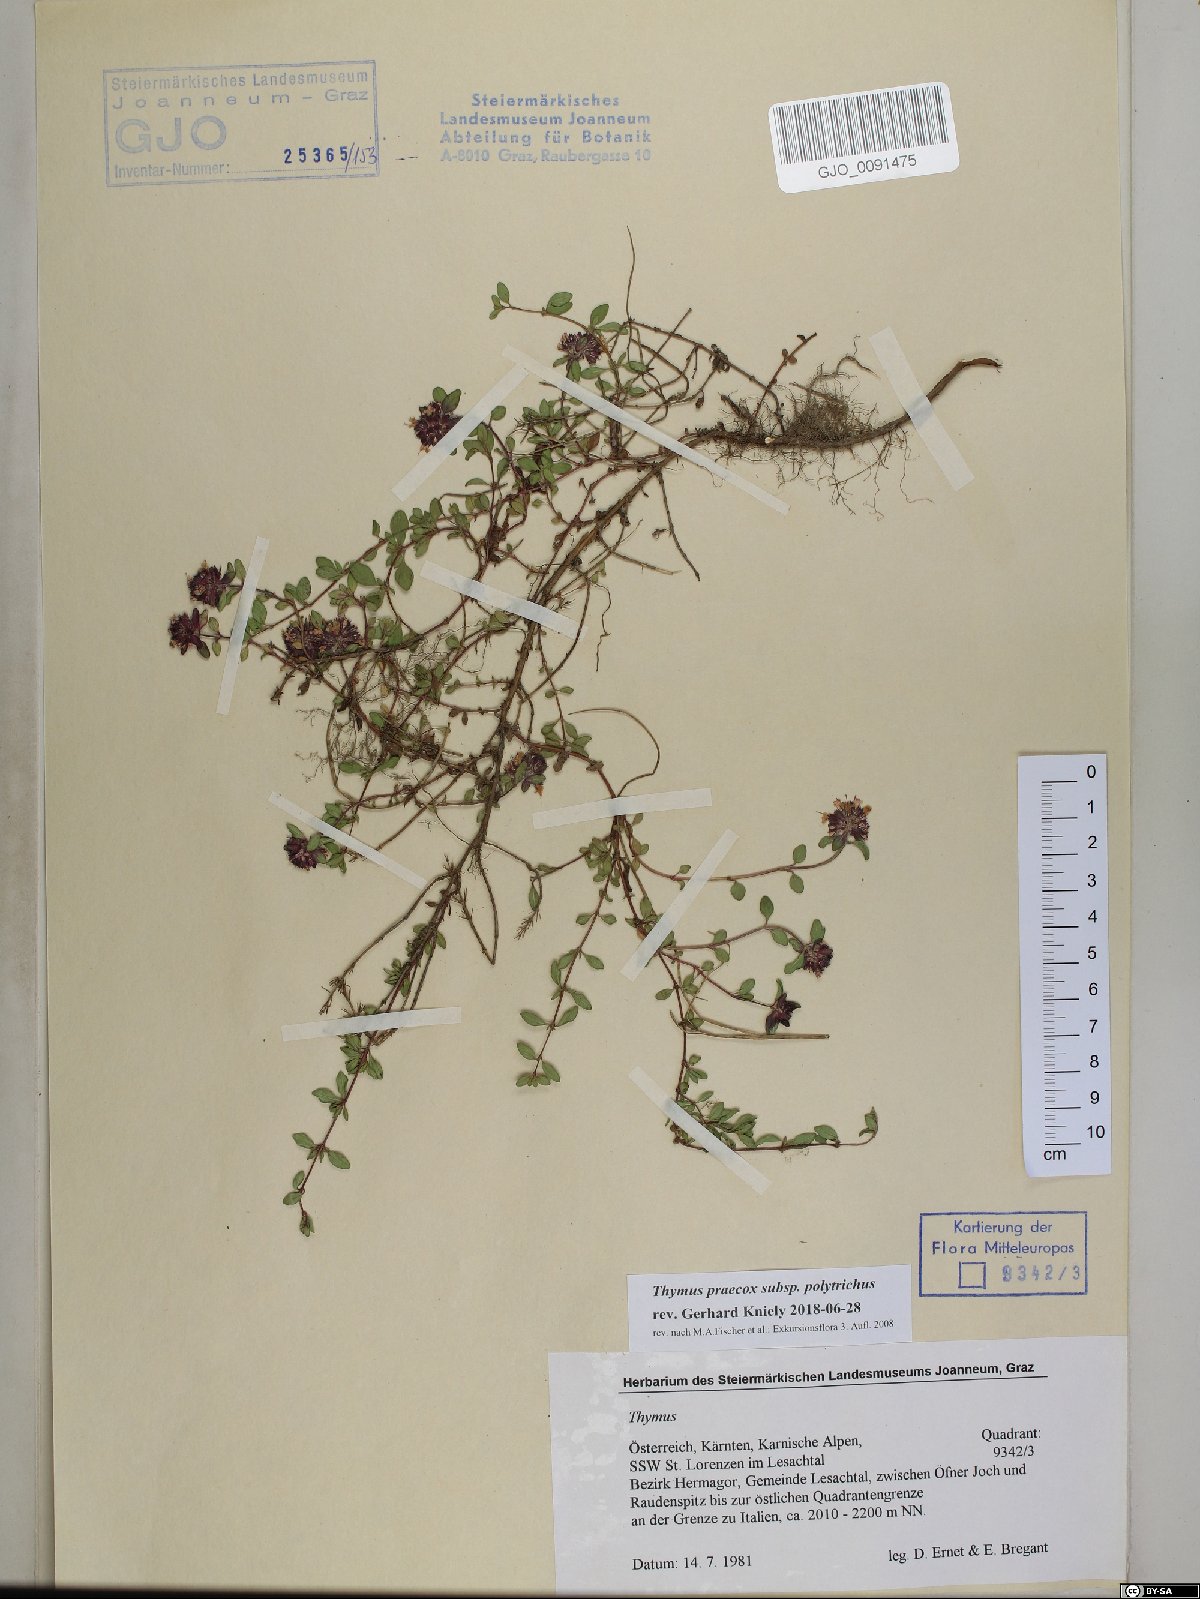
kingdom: Plantae
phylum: Tracheophyta
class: Magnoliopsida
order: Lamiales
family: Lamiaceae
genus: Thymus
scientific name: Thymus praecox
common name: Wild thyme
